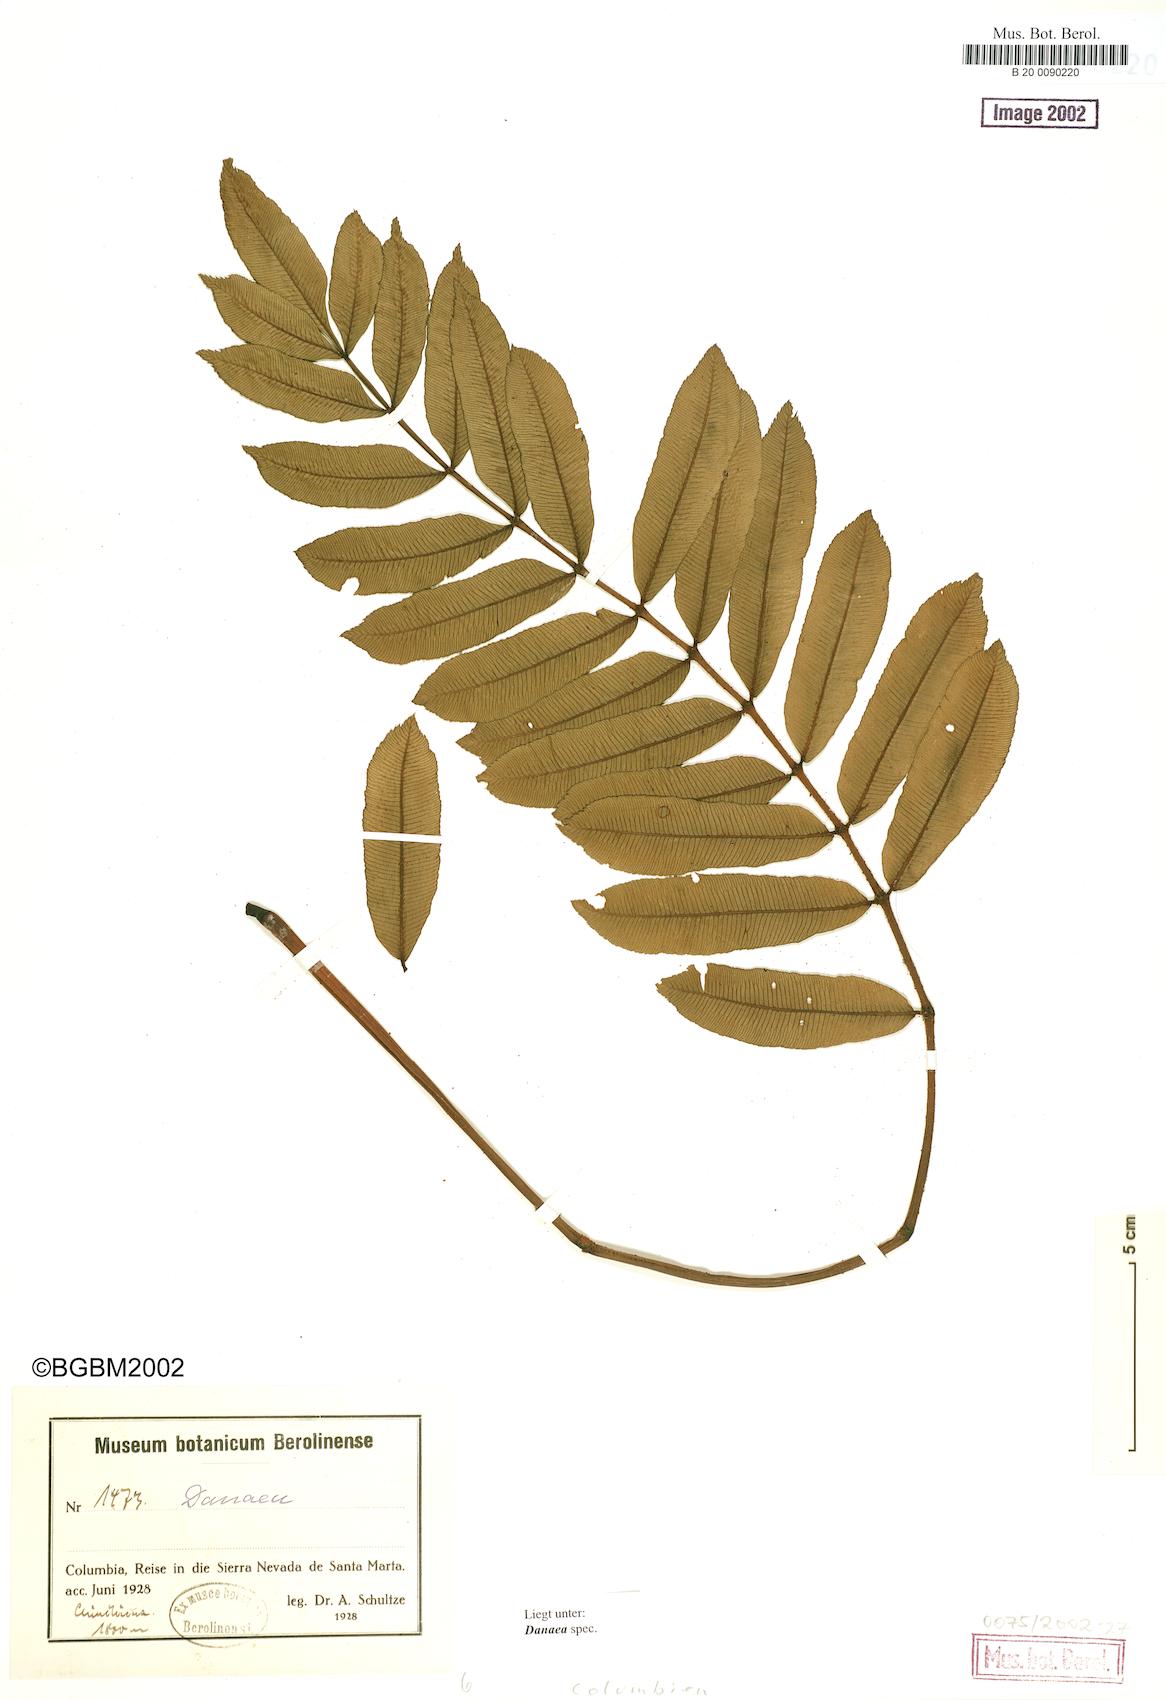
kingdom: Plantae
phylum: Tracheophyta
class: Polypodiopsida
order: Marattiales
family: Marattiaceae
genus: Danaea
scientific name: Danaea
